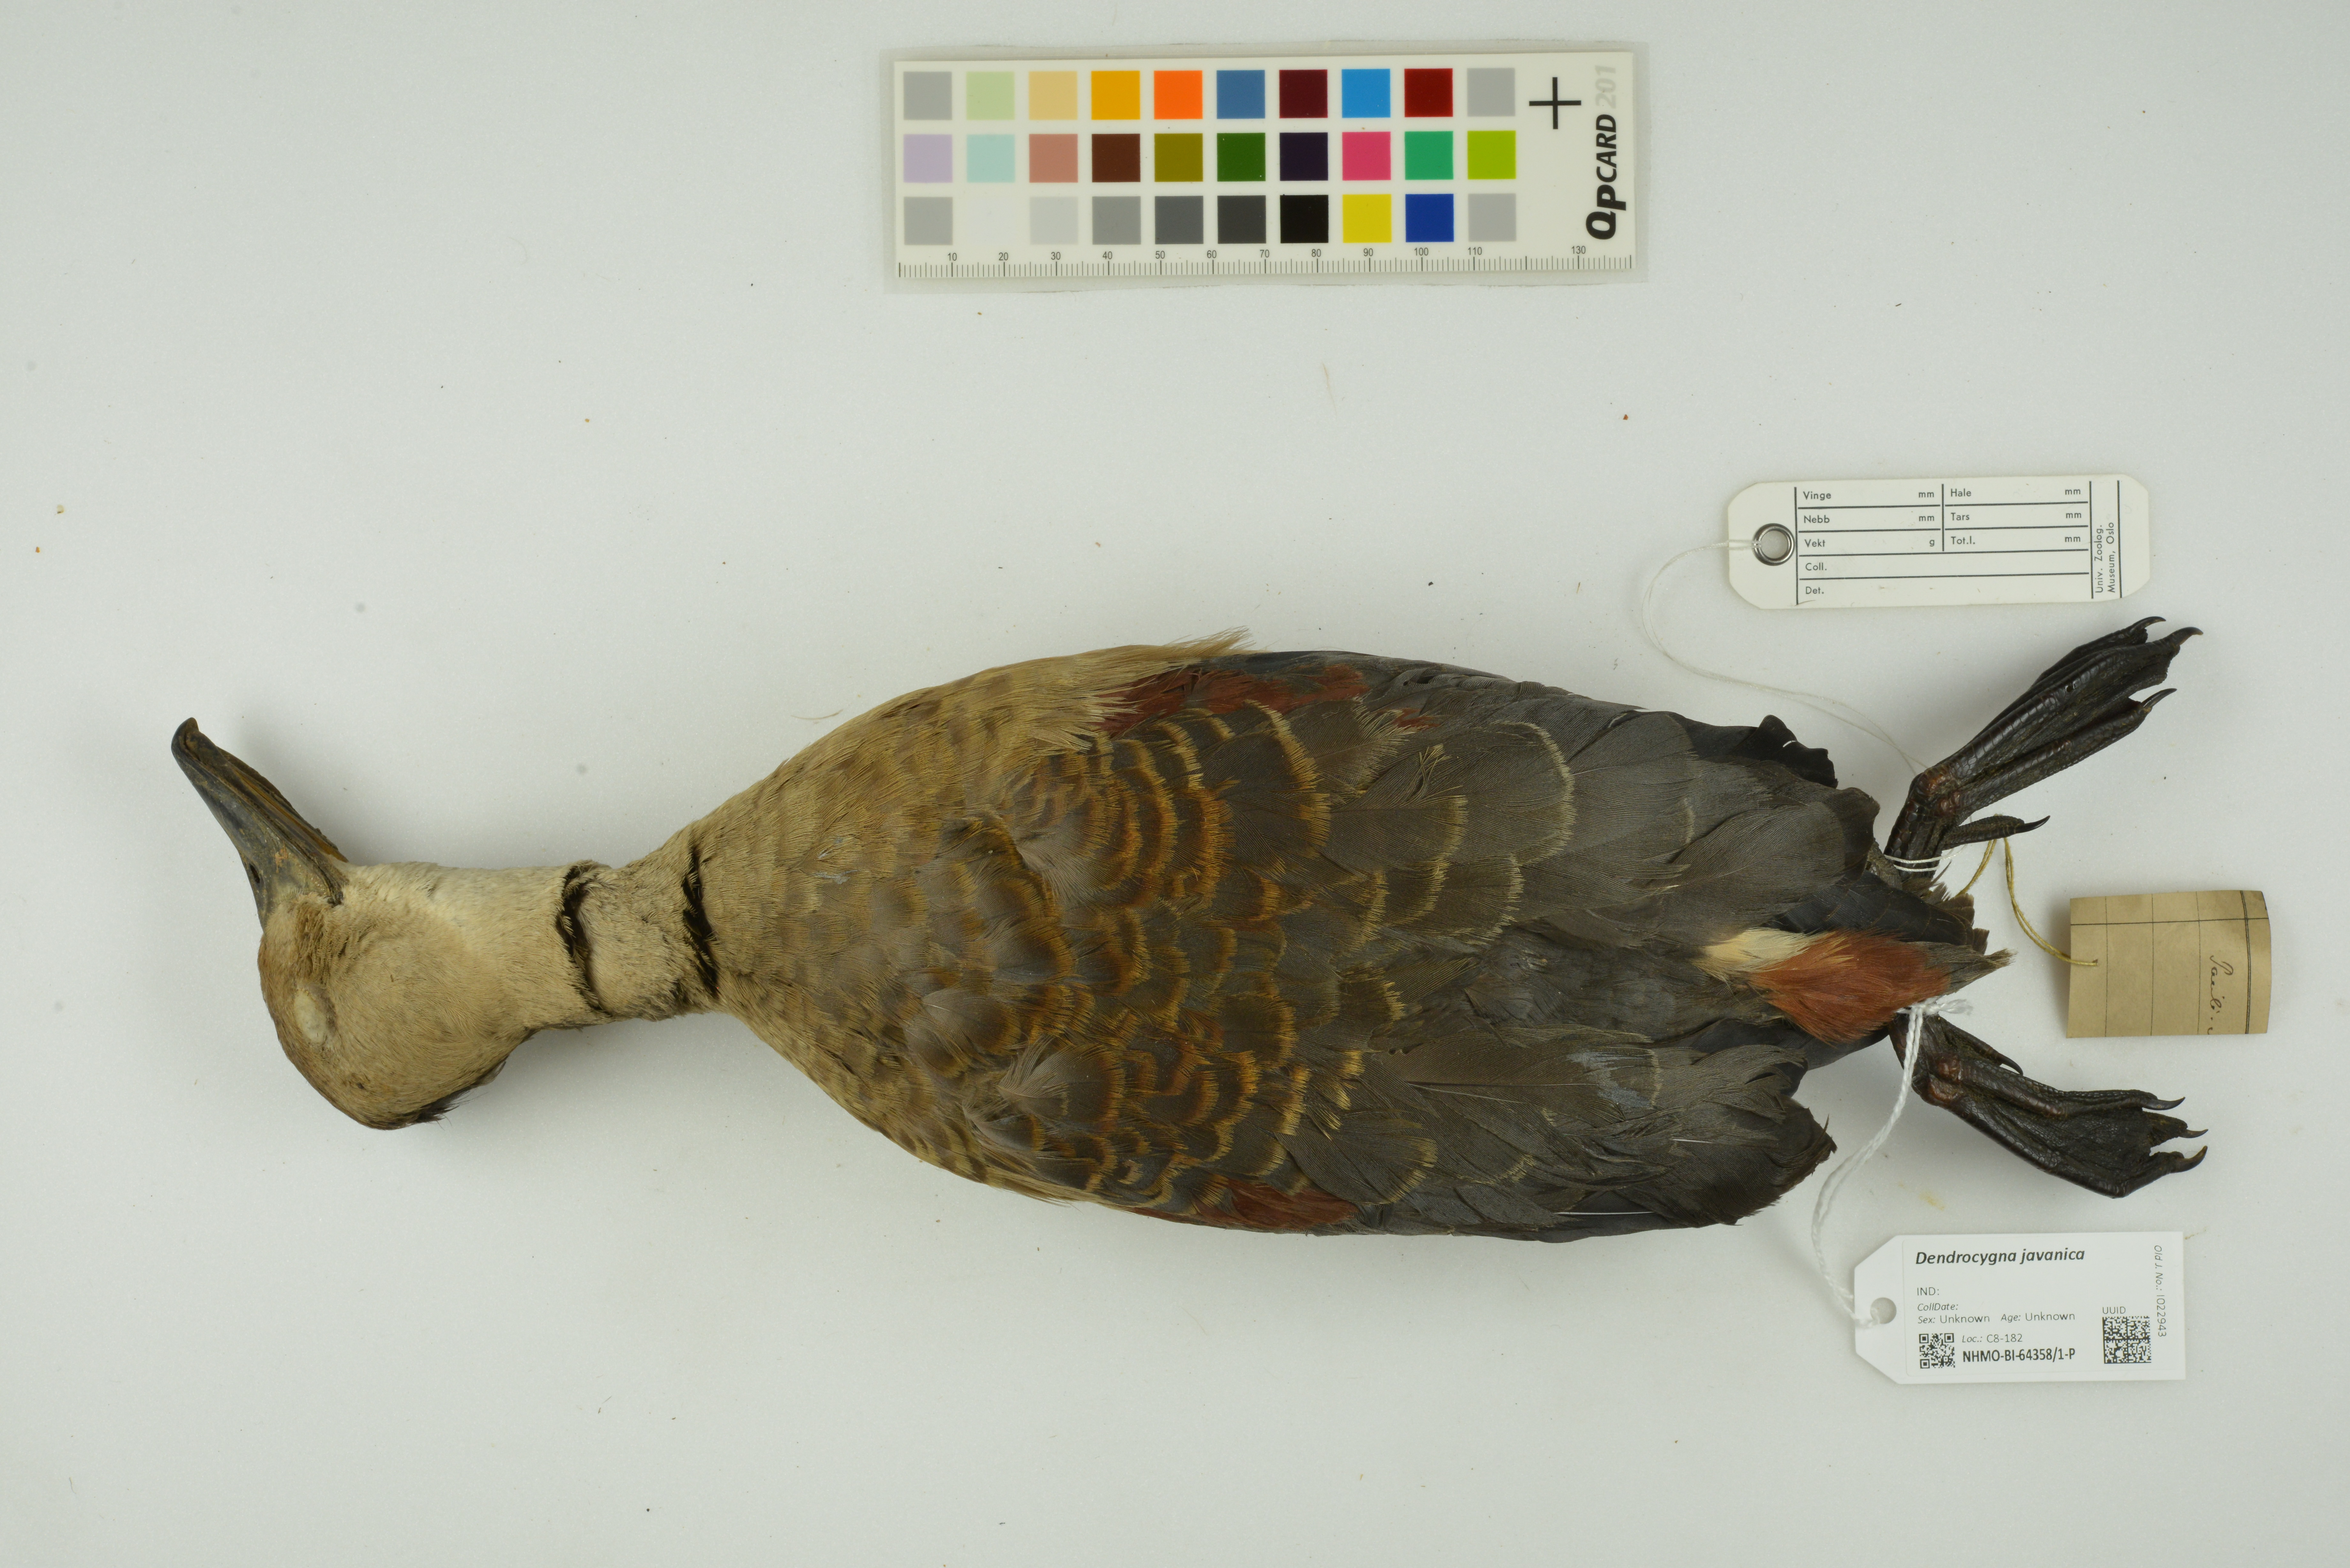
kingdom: Animalia
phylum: Chordata
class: Aves
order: Anseriformes
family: Anatidae
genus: Dendrocygna
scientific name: Dendrocygna javanica
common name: Lesser whistling-duck
